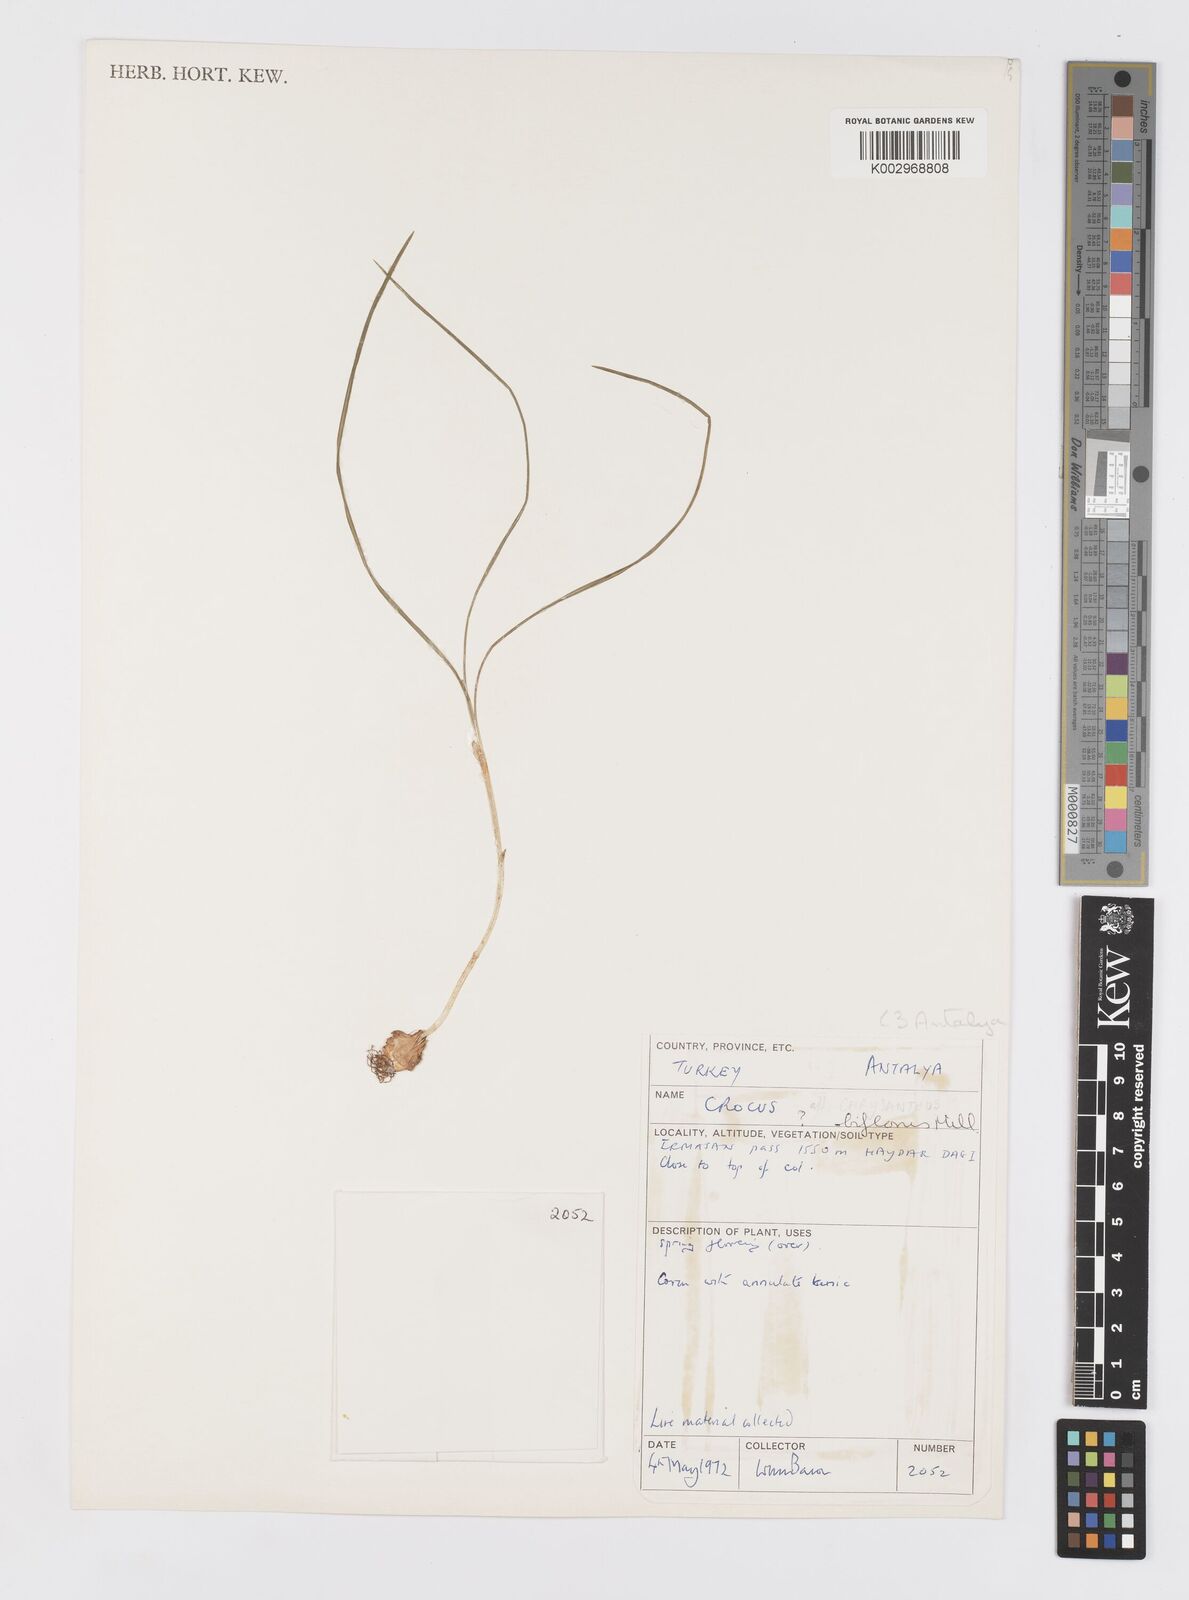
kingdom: Plantae
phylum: Tracheophyta
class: Liliopsida
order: Asparagales
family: Iridaceae
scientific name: Iridaceae
